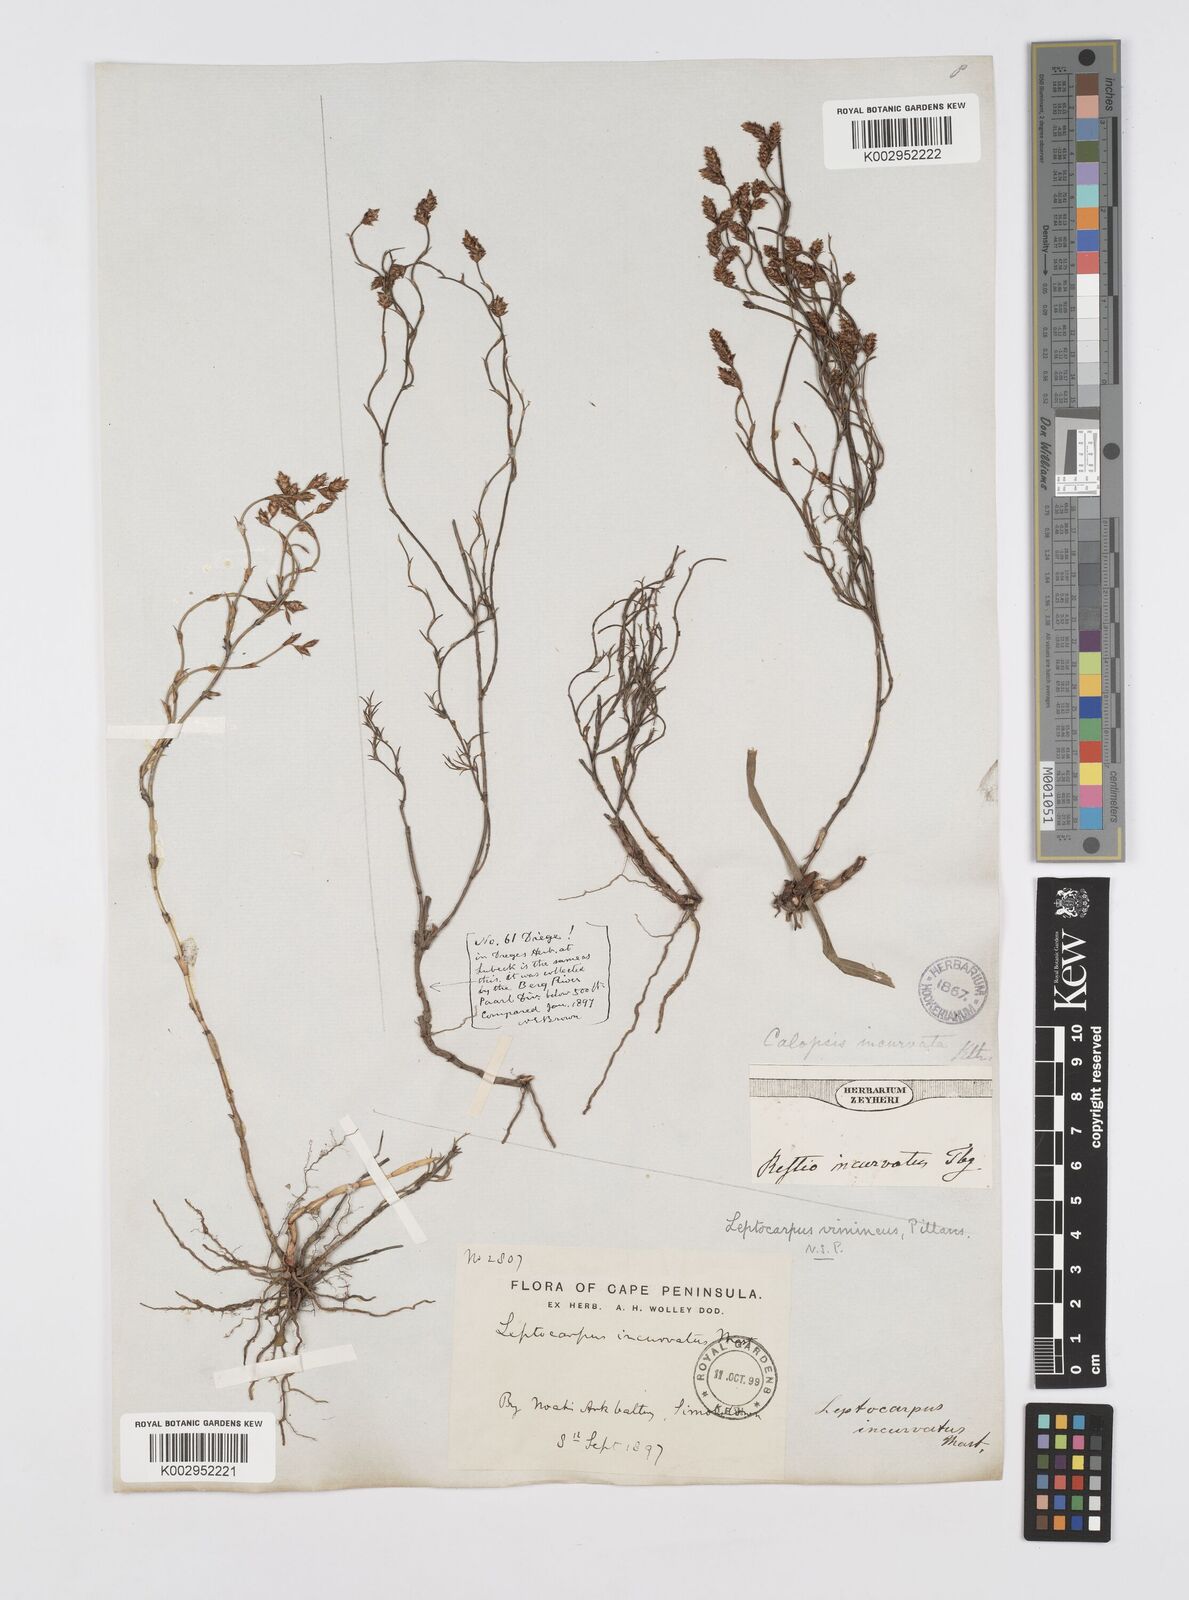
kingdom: Plantae
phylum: Tracheophyta
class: Liliopsida
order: Poales
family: Restionaceae
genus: Restio
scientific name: Restio vimineus
